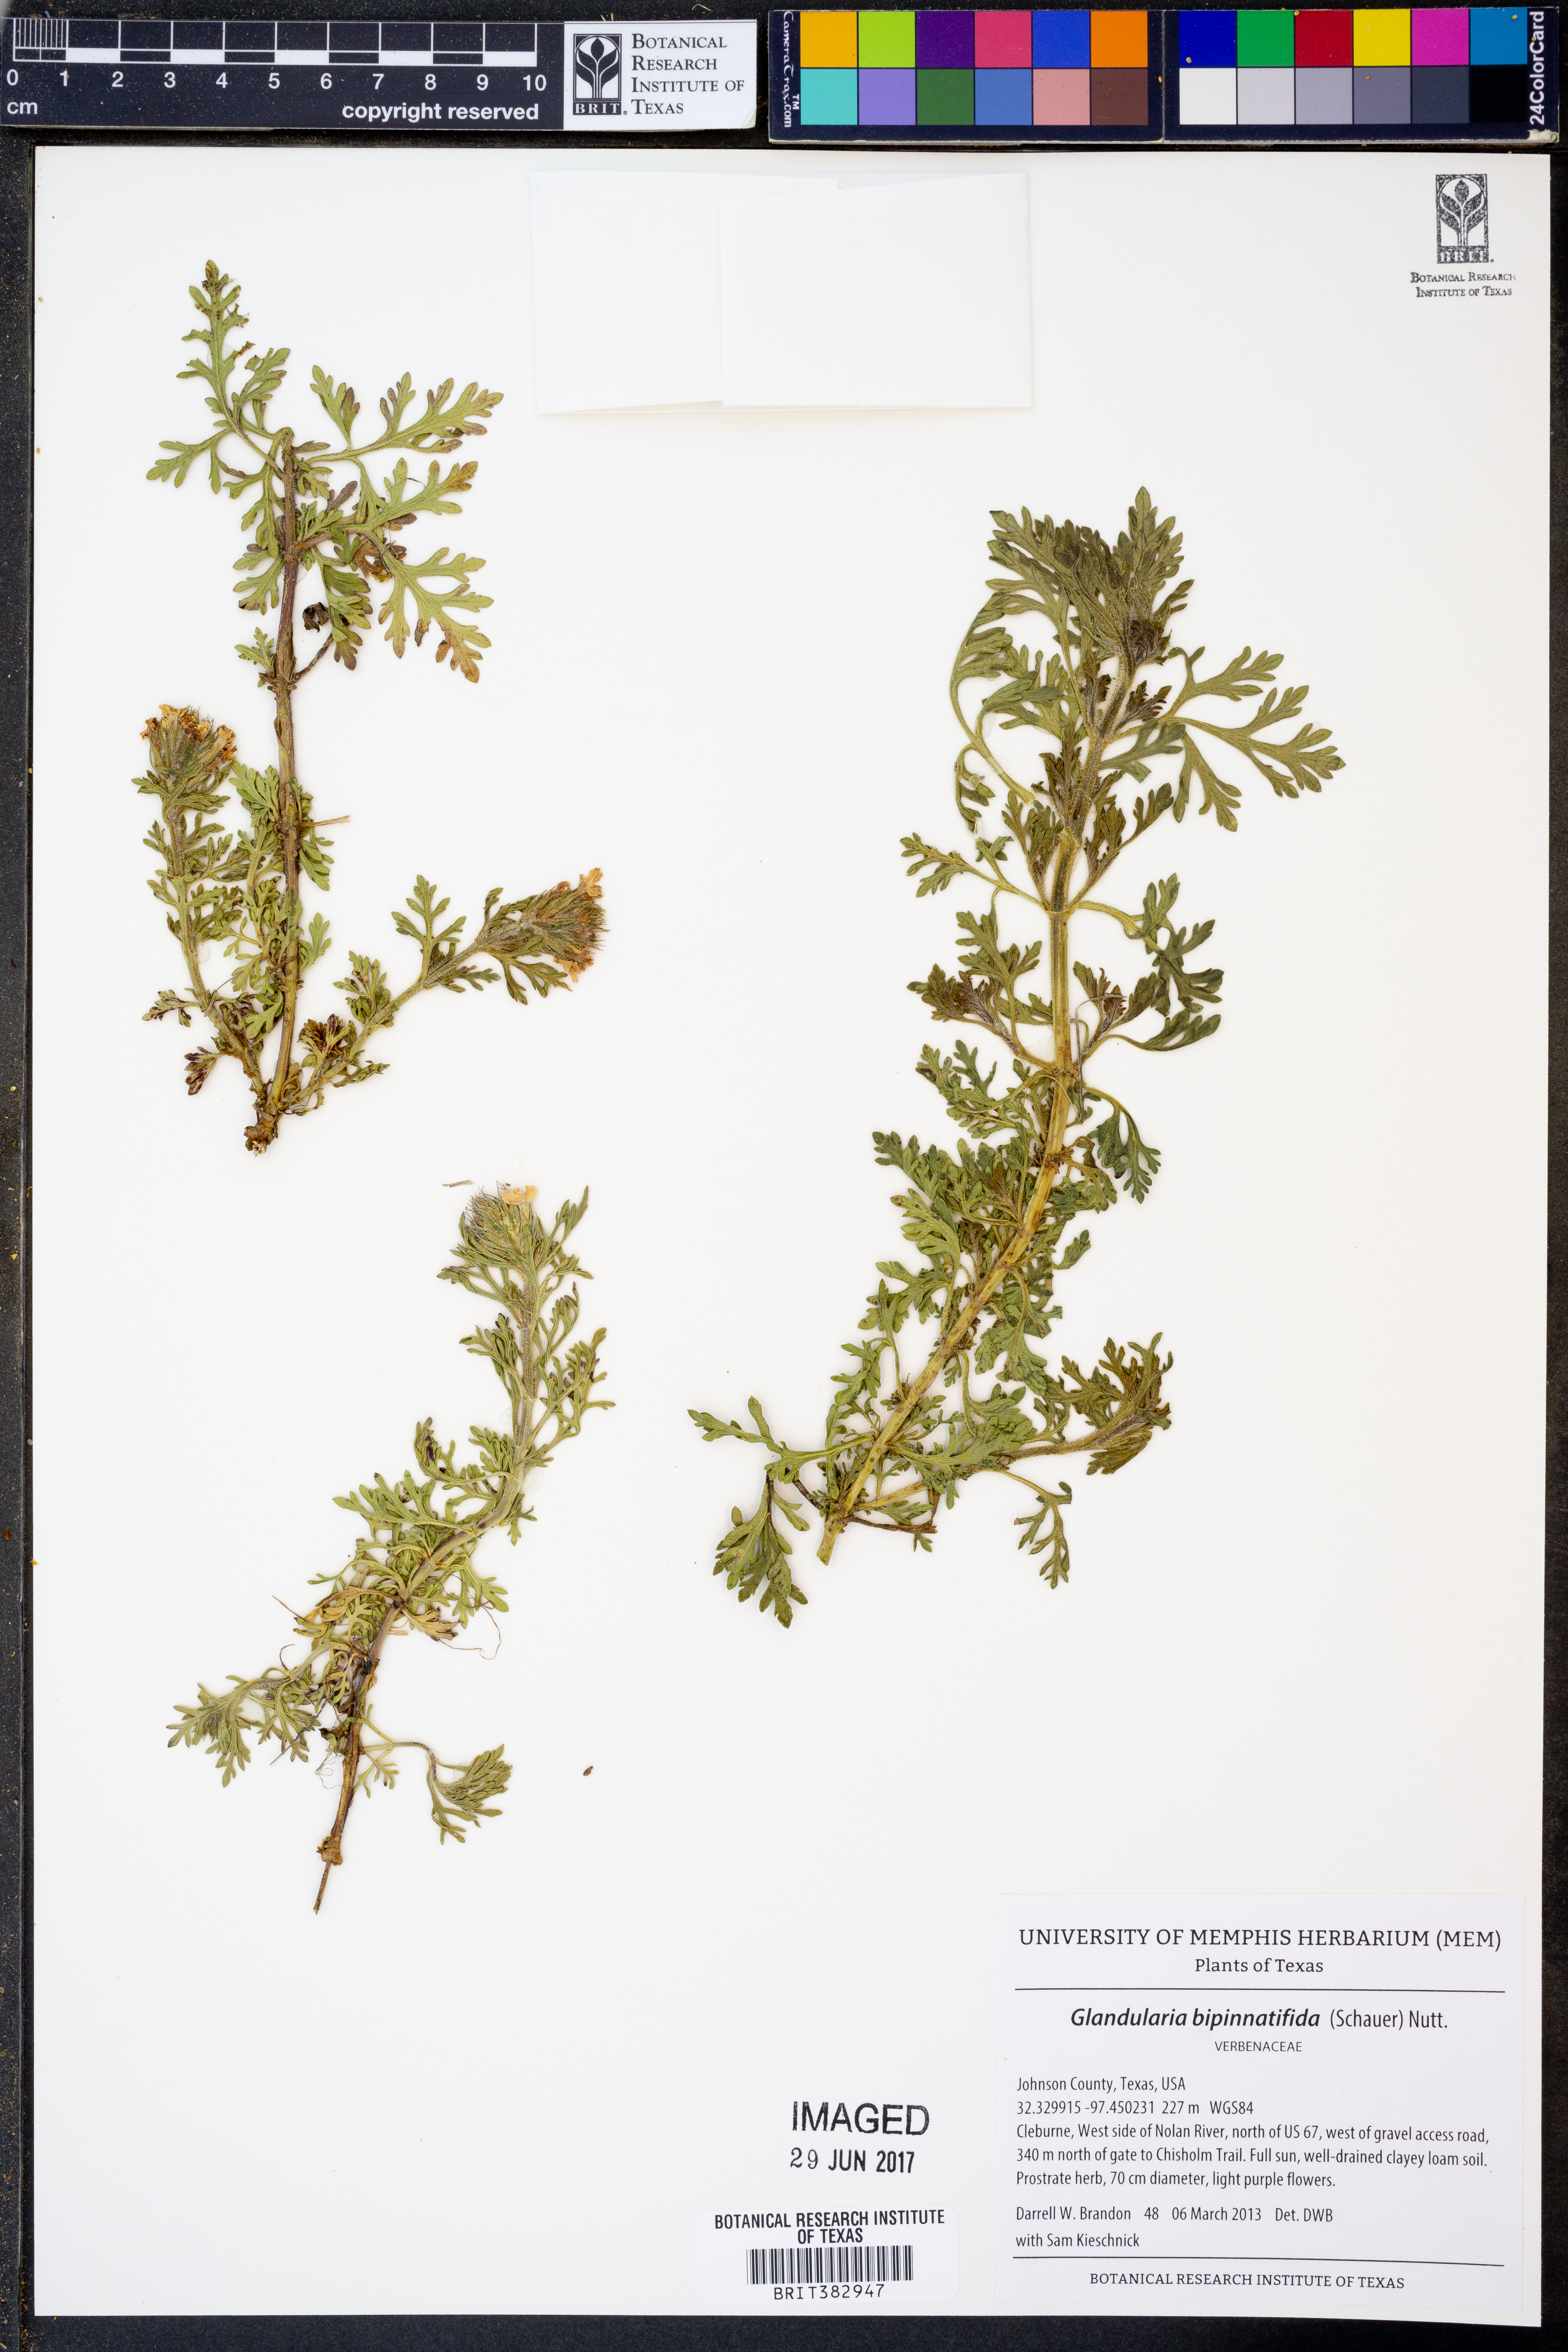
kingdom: Plantae
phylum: Tracheophyta
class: Magnoliopsida
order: Lamiales
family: Verbenaceae
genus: Verbena
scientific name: Verbena bipinnatifida
